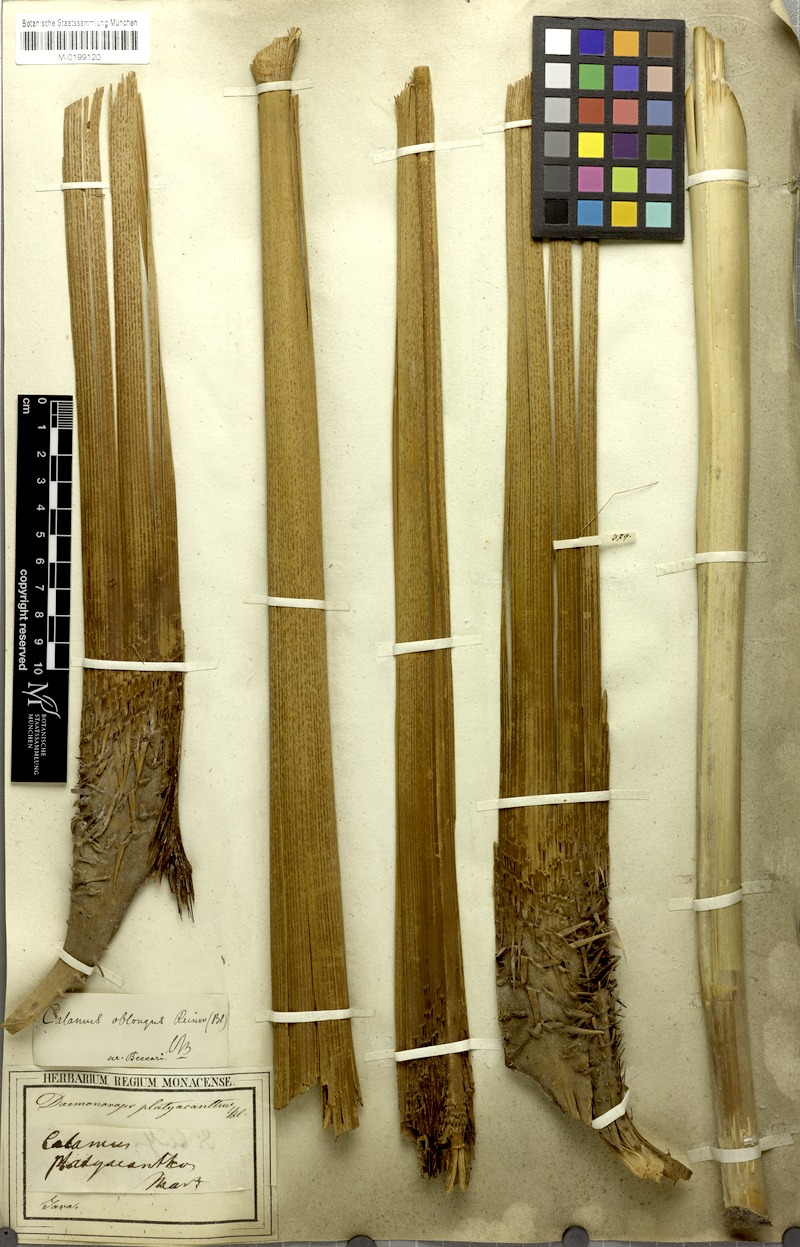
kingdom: Plantae
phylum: Tracheophyta
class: Liliopsida
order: Arecales
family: Arecaceae
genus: Calamus
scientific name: Calamus oblongus
